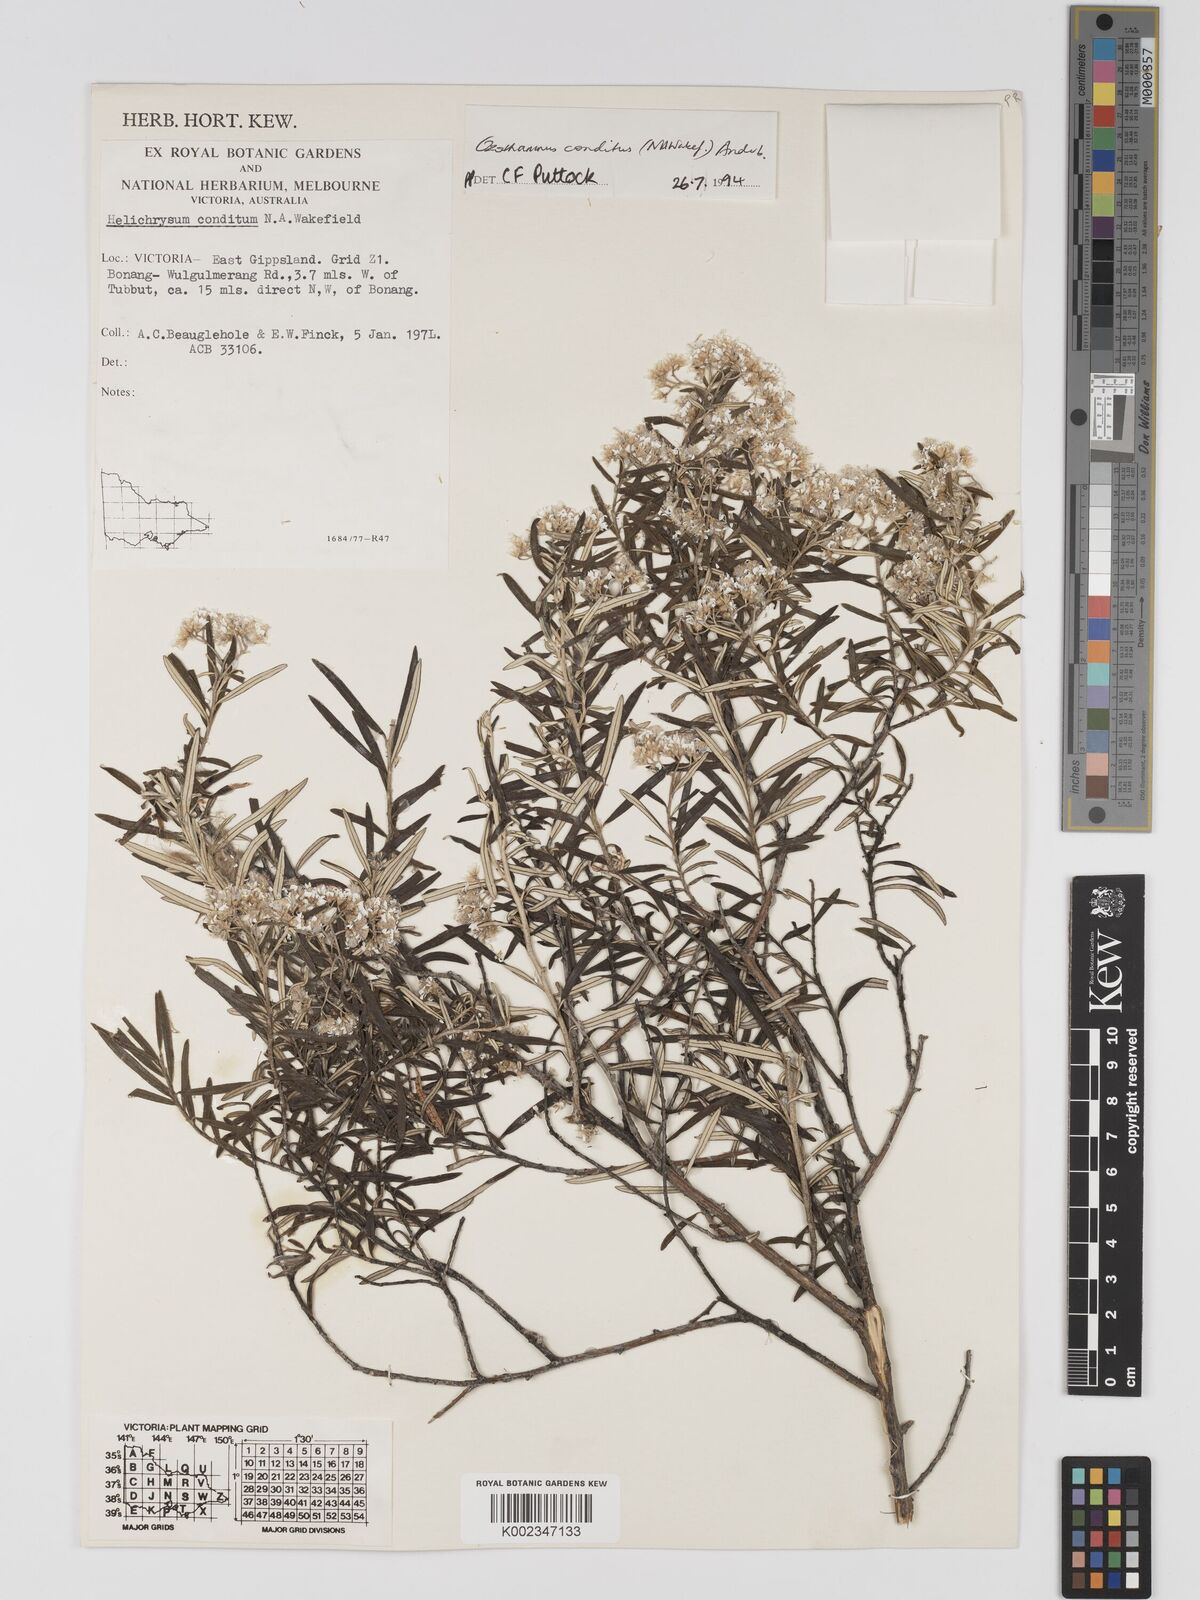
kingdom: Plantae
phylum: Tracheophyta
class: Magnoliopsida
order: Asterales
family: Asteraceae
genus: Ozothamnus
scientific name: Ozothamnus conditus
